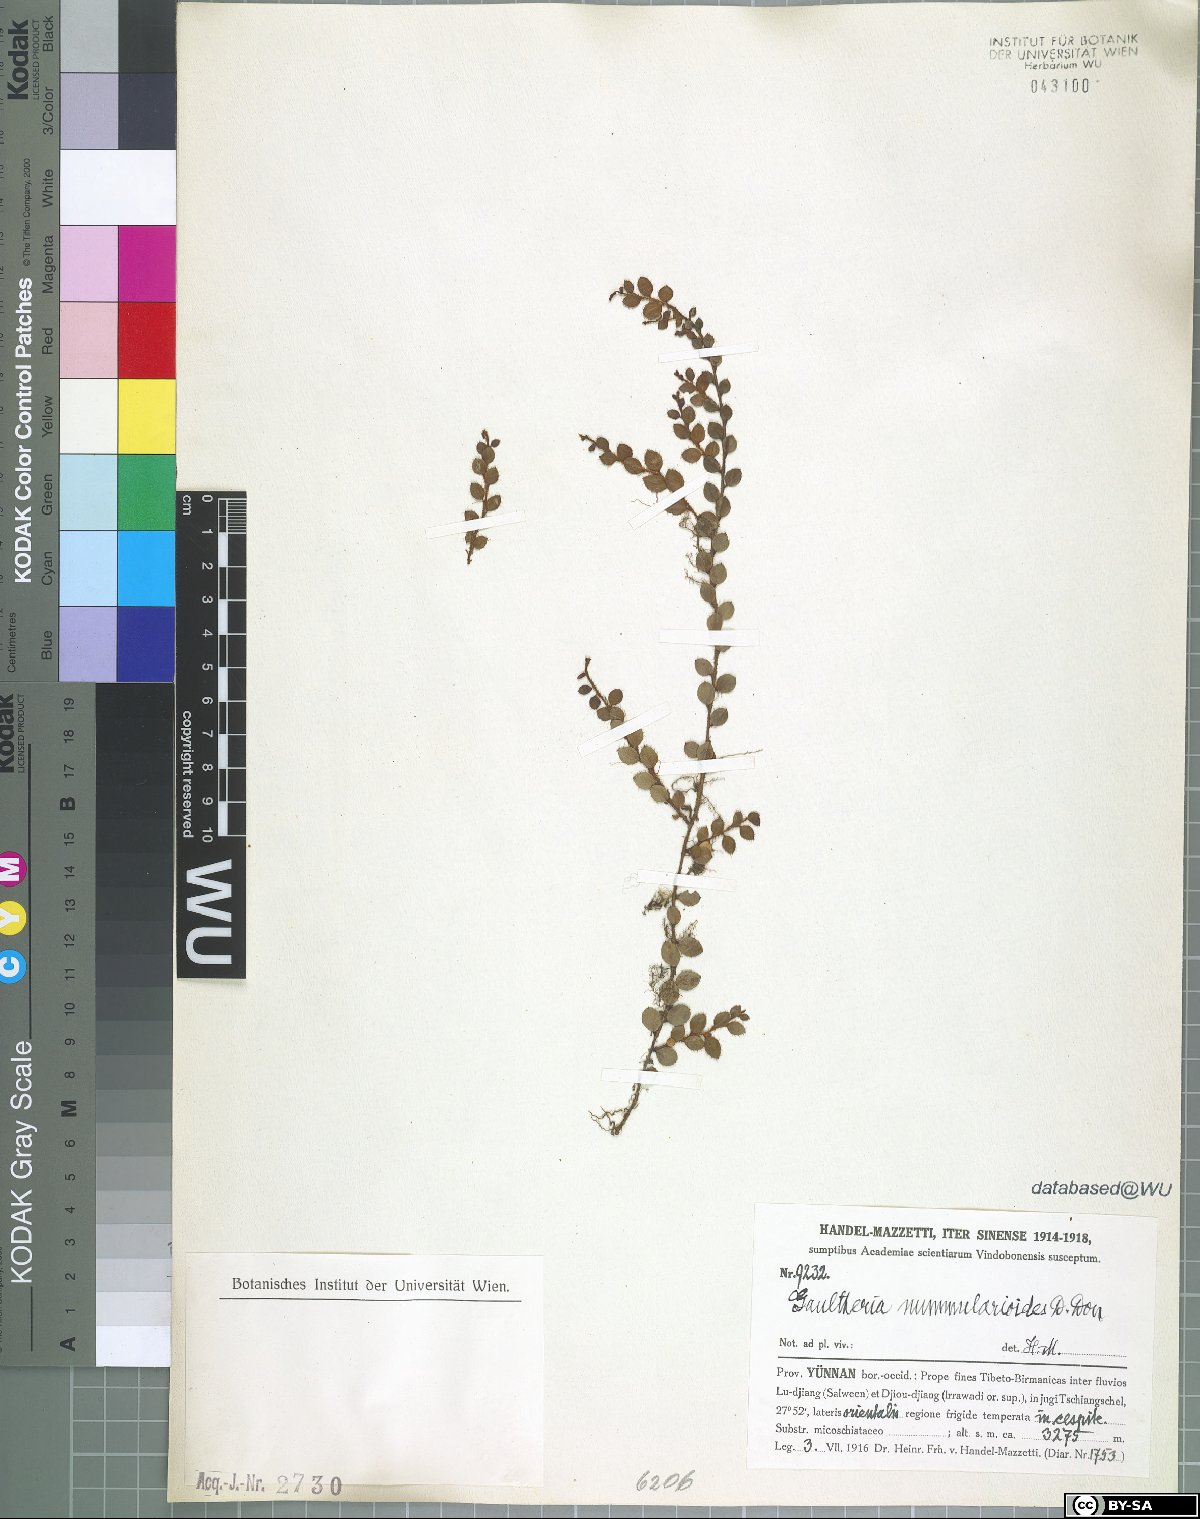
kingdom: Plantae
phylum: Tracheophyta
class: Magnoliopsida
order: Ericales
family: Ericaceae
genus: Gaultheria
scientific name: Gaultheria nummularioides
